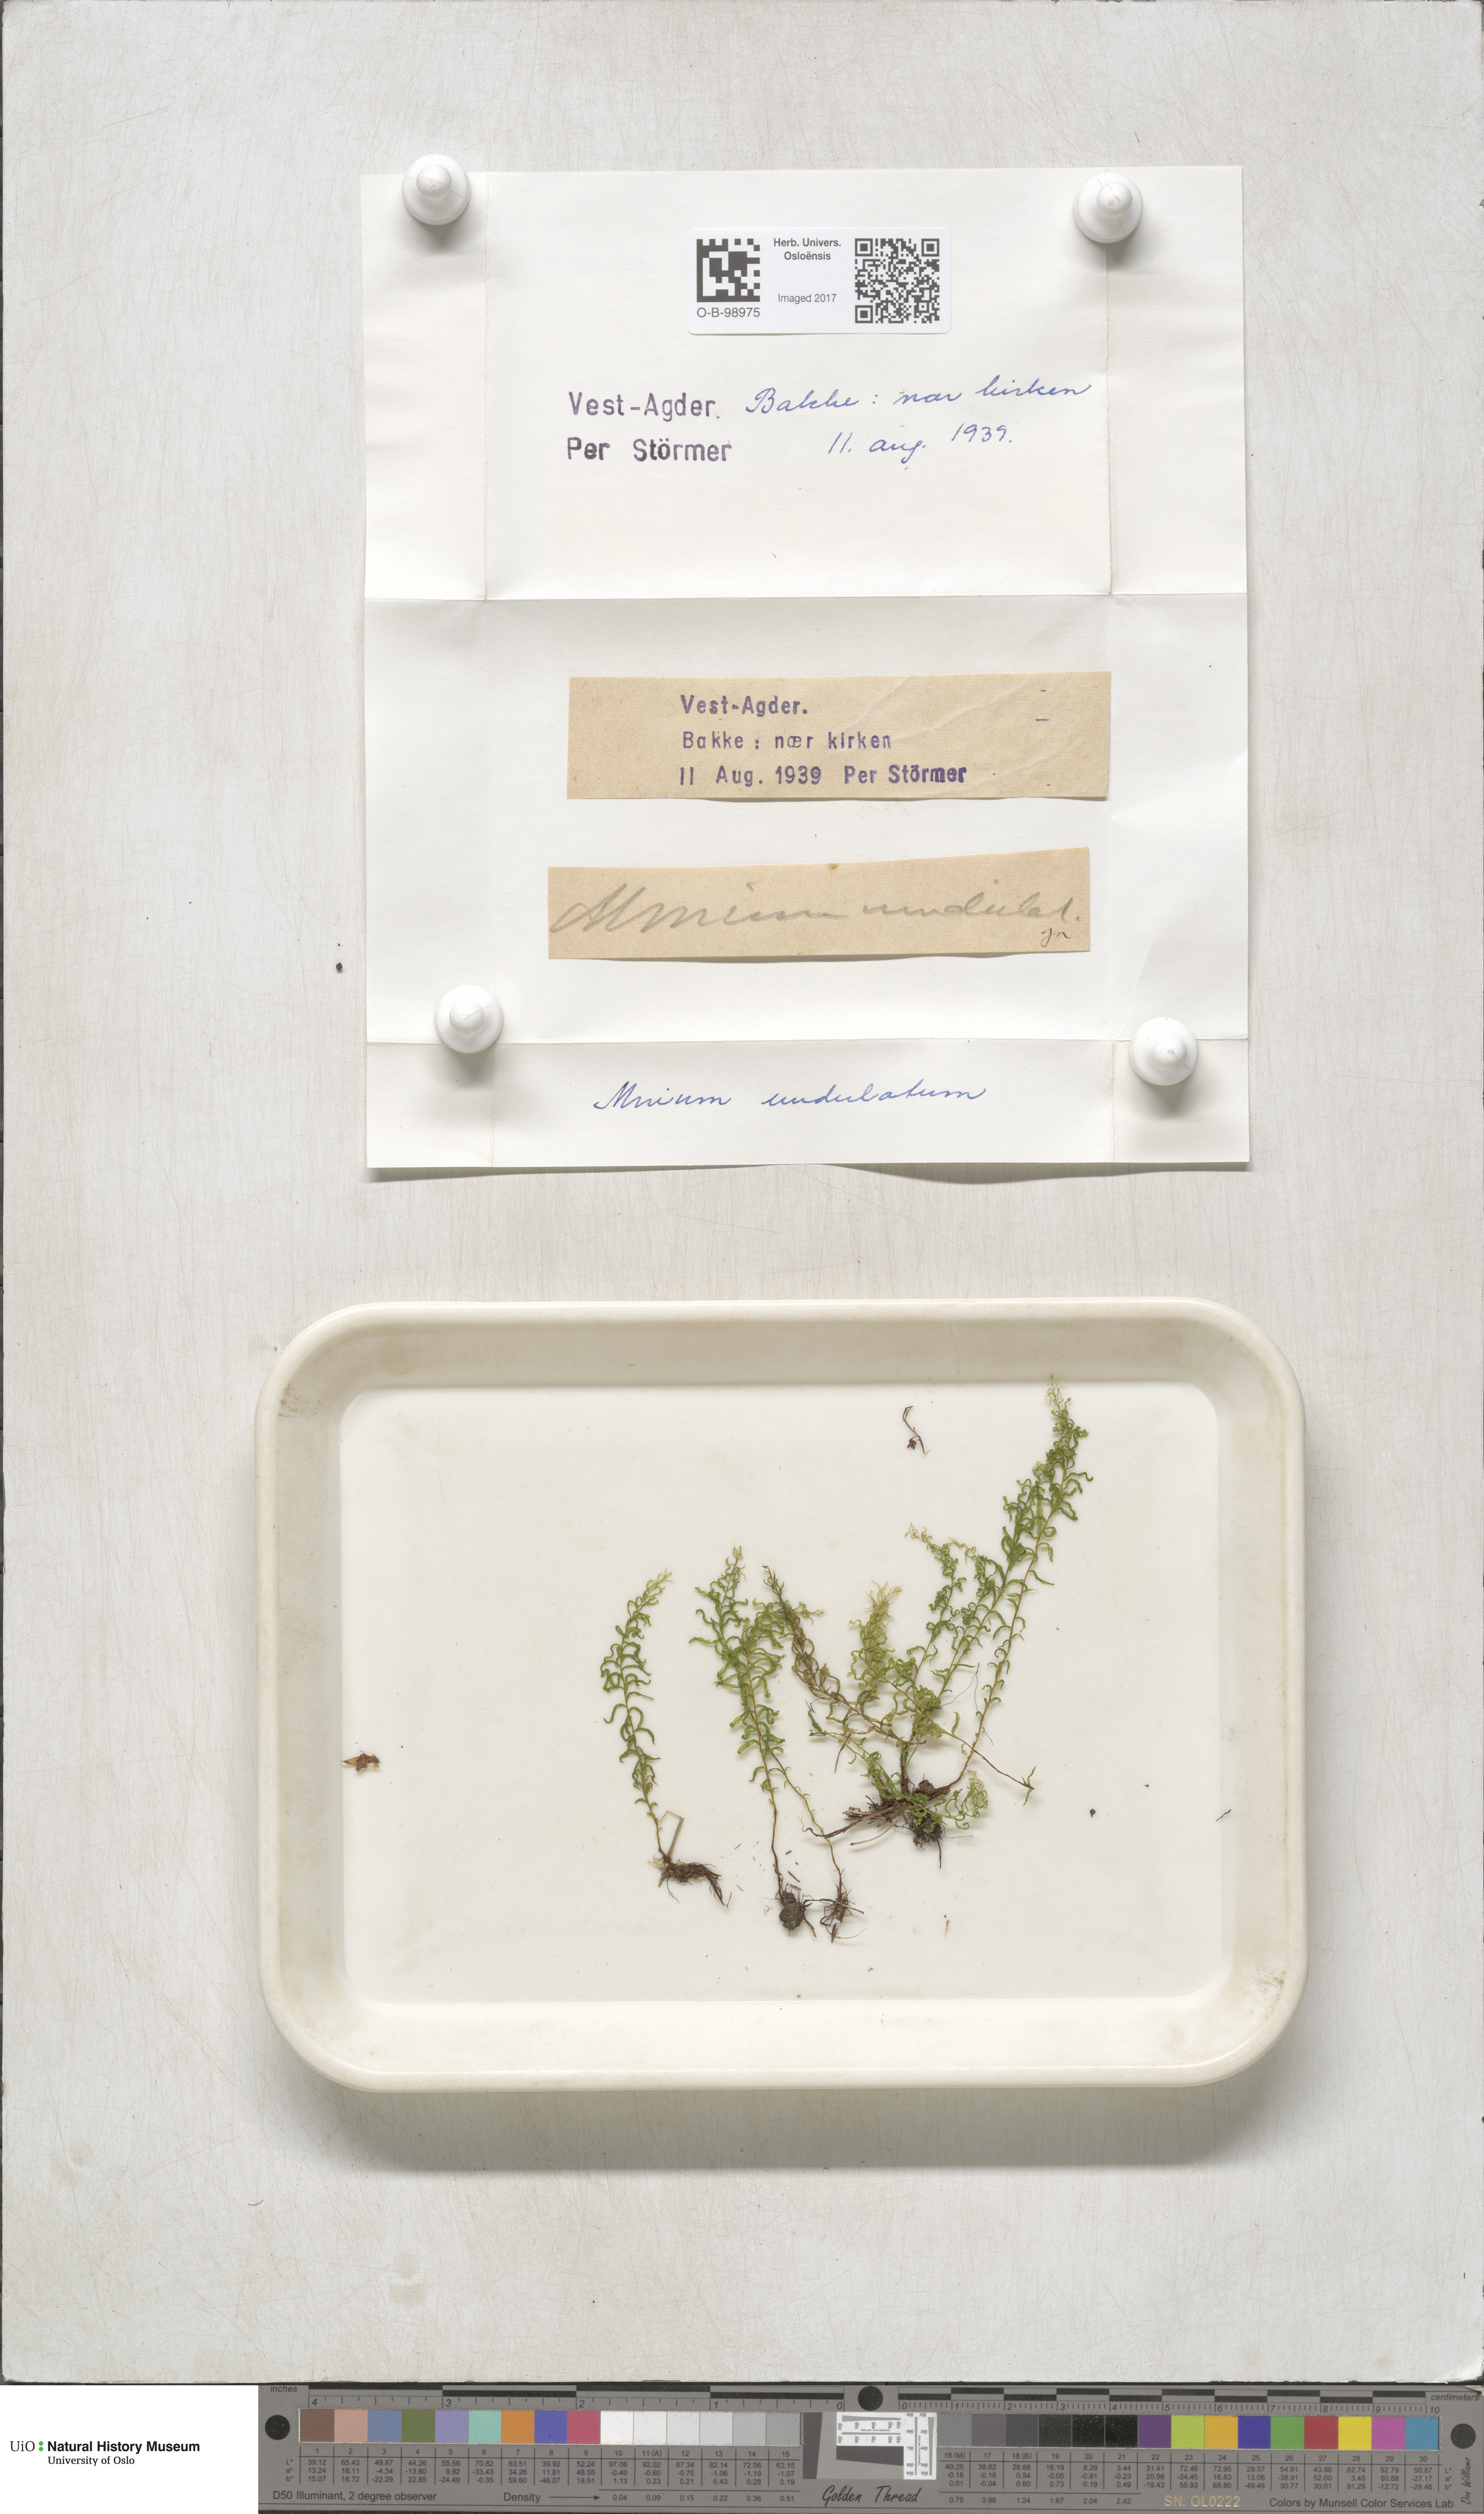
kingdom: Plantae
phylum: Bryophyta
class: Bryopsida
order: Bryales
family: Mniaceae
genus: Plagiomnium
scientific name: Plagiomnium undulatum
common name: Hart's-tongue thyme-moss
